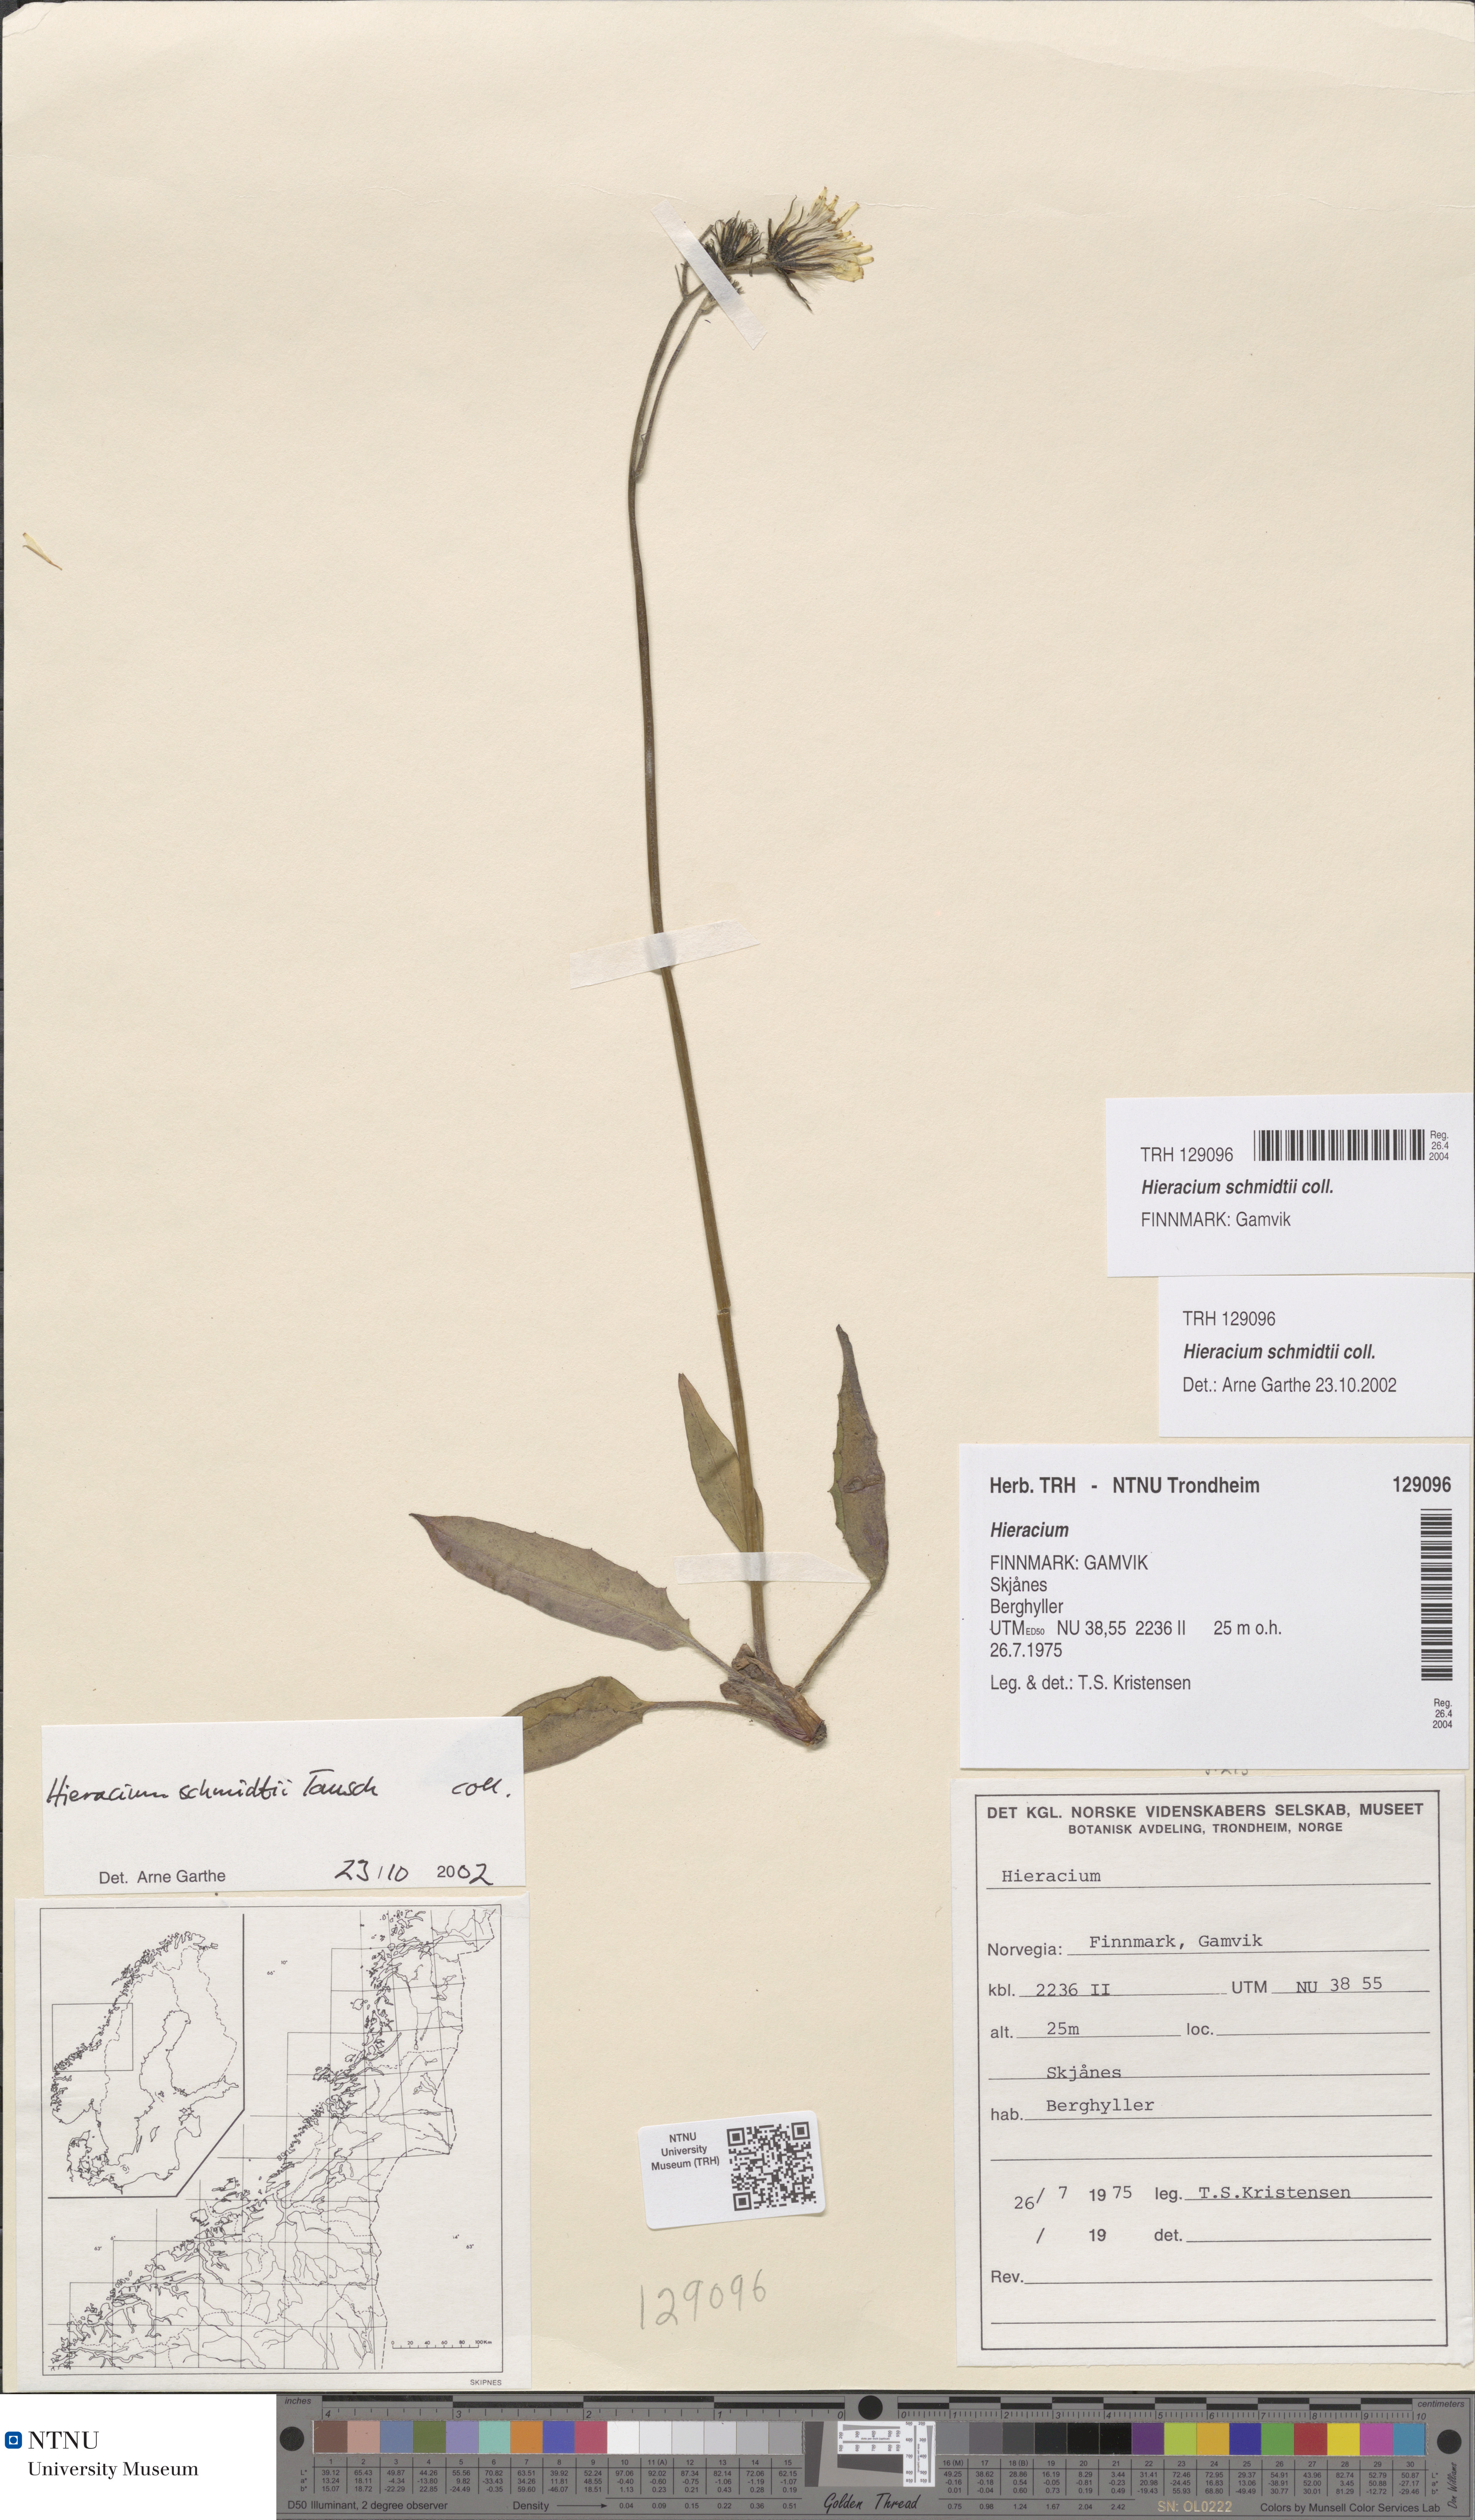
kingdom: Plantae
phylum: Tracheophyta
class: Magnoliopsida
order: Asterales
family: Asteraceae
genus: Hieracium
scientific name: Hieracium schmidtii
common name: Schmidt's hawkweed
